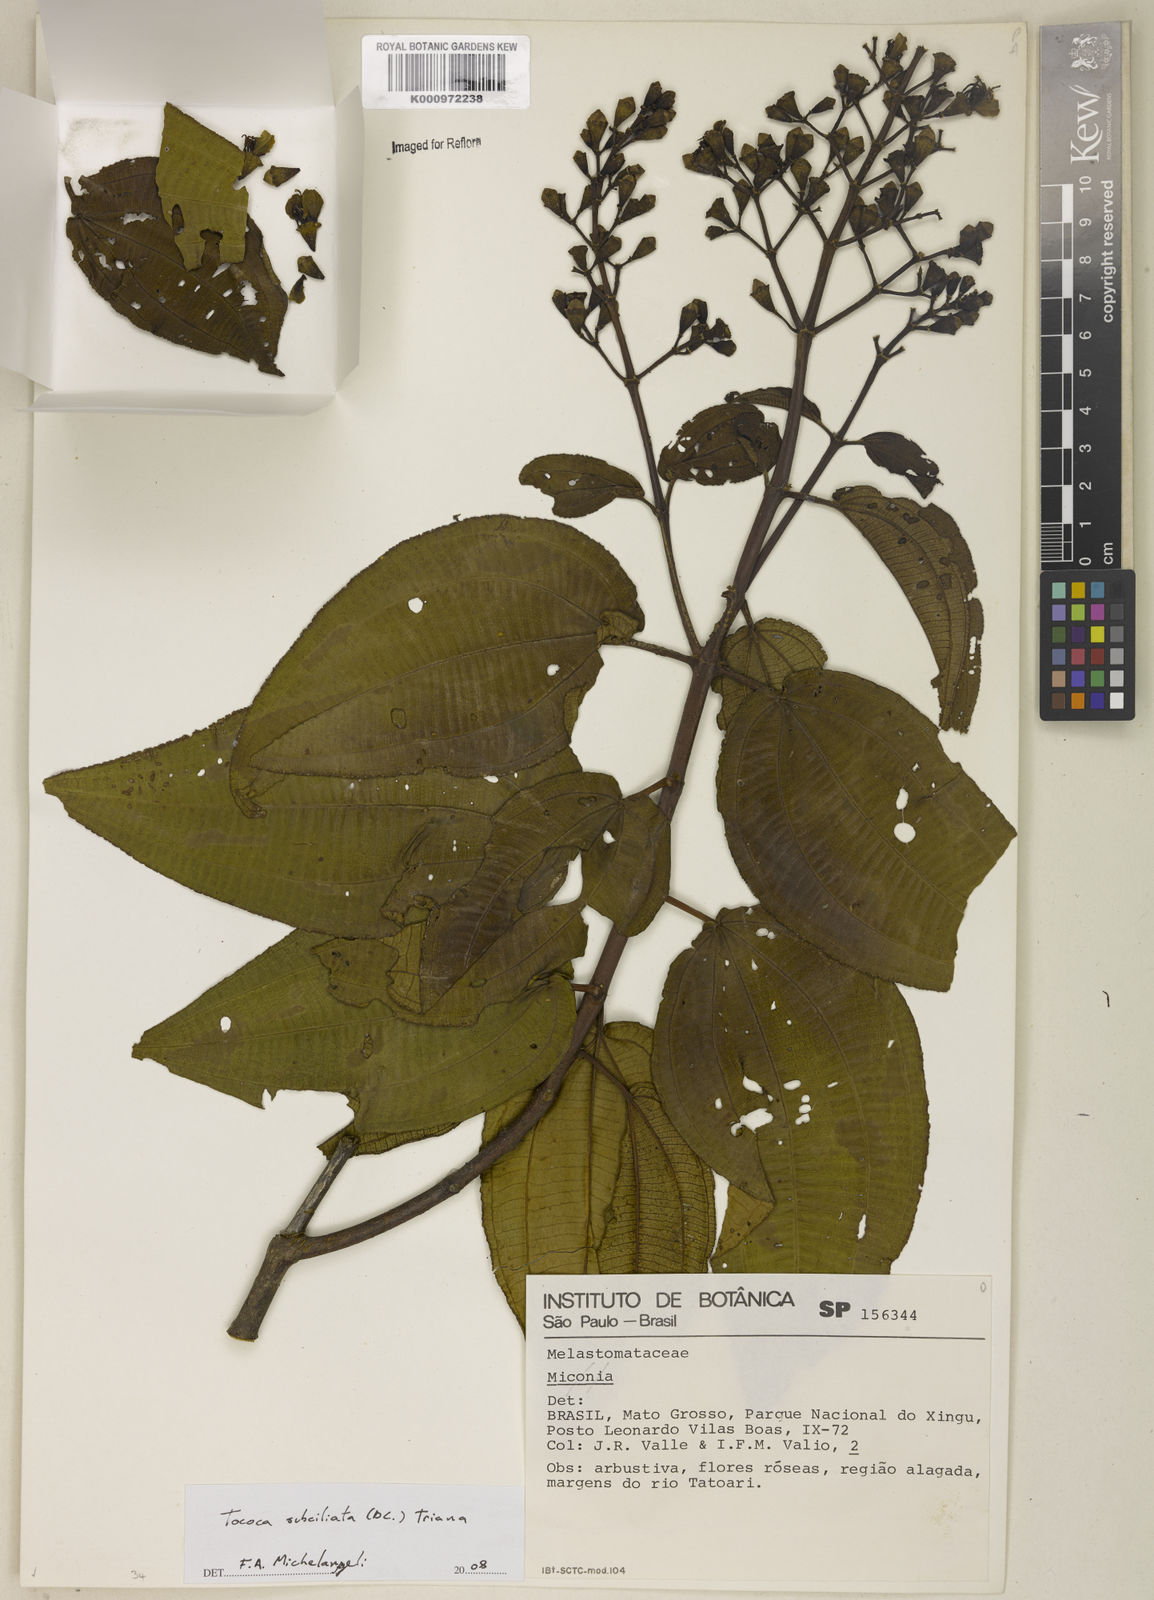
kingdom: Plantae
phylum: Tracheophyta
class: Magnoliopsida
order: Myrtales
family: Melastomataceae
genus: Miconia
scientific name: Miconia subciliata
